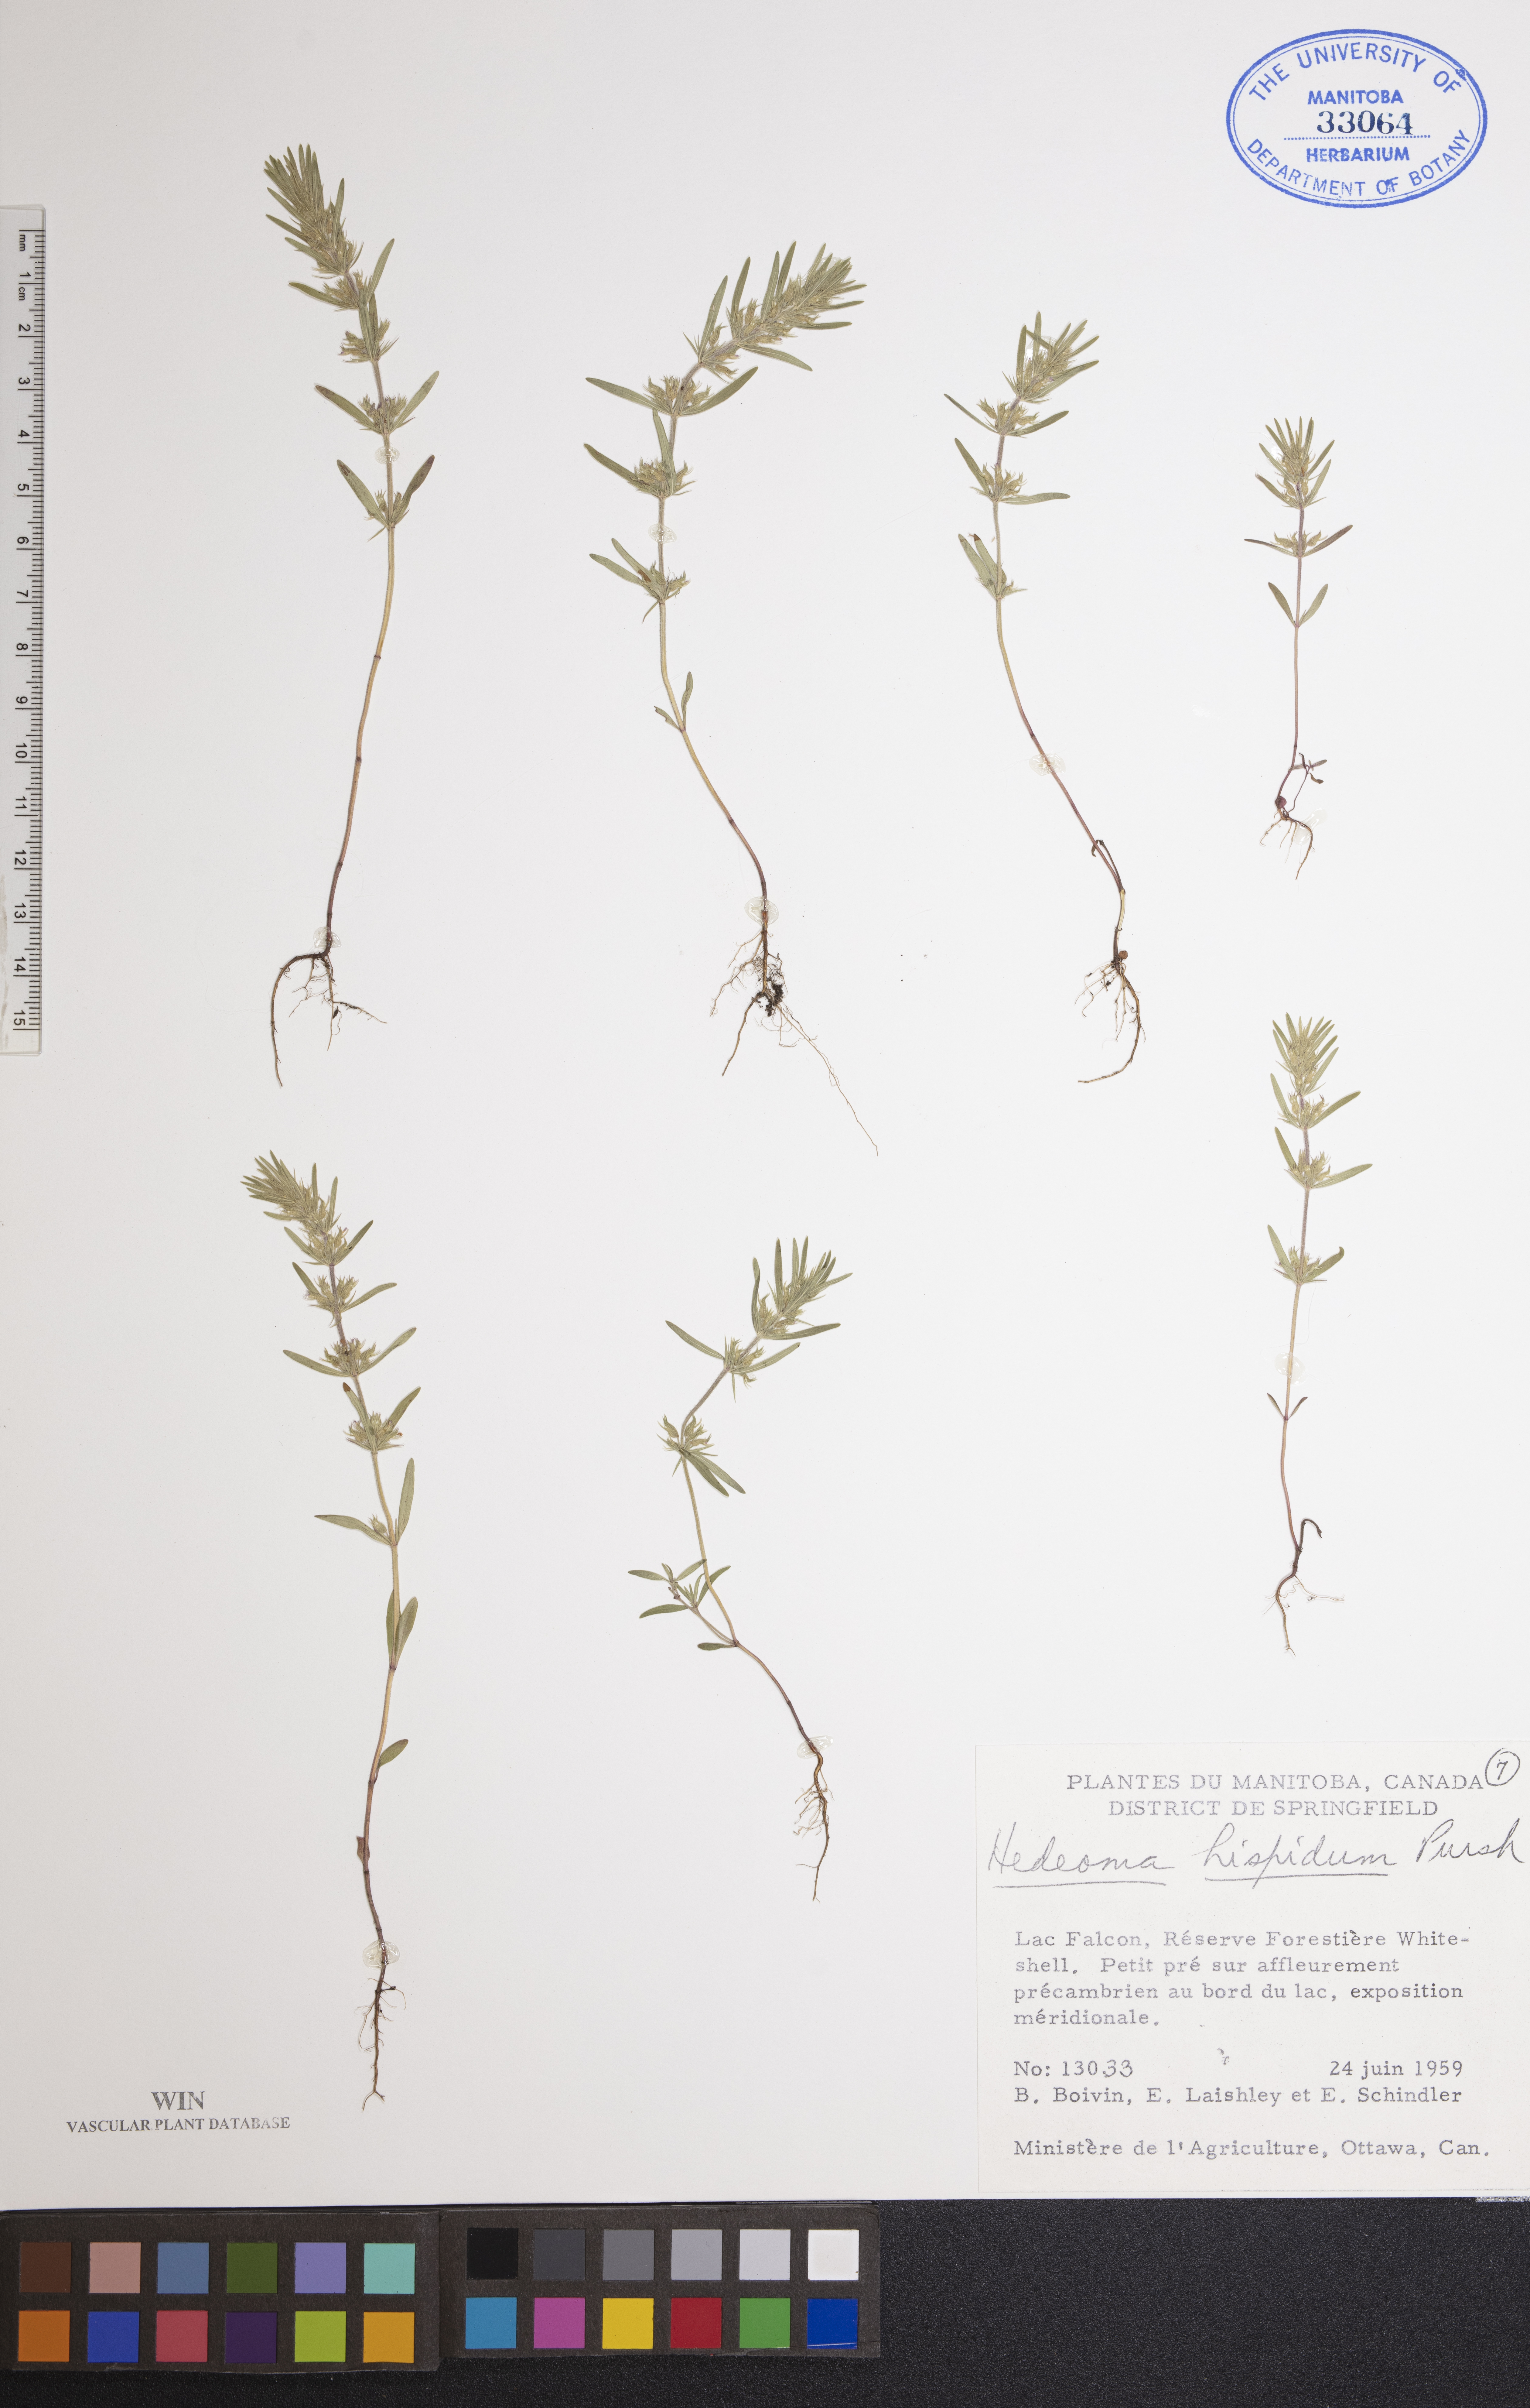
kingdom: Plantae
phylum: Tracheophyta
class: Magnoliopsida
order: Lamiales
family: Lamiaceae
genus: Hedeoma
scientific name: Hedeoma hispida
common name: Mock pennyroyal
